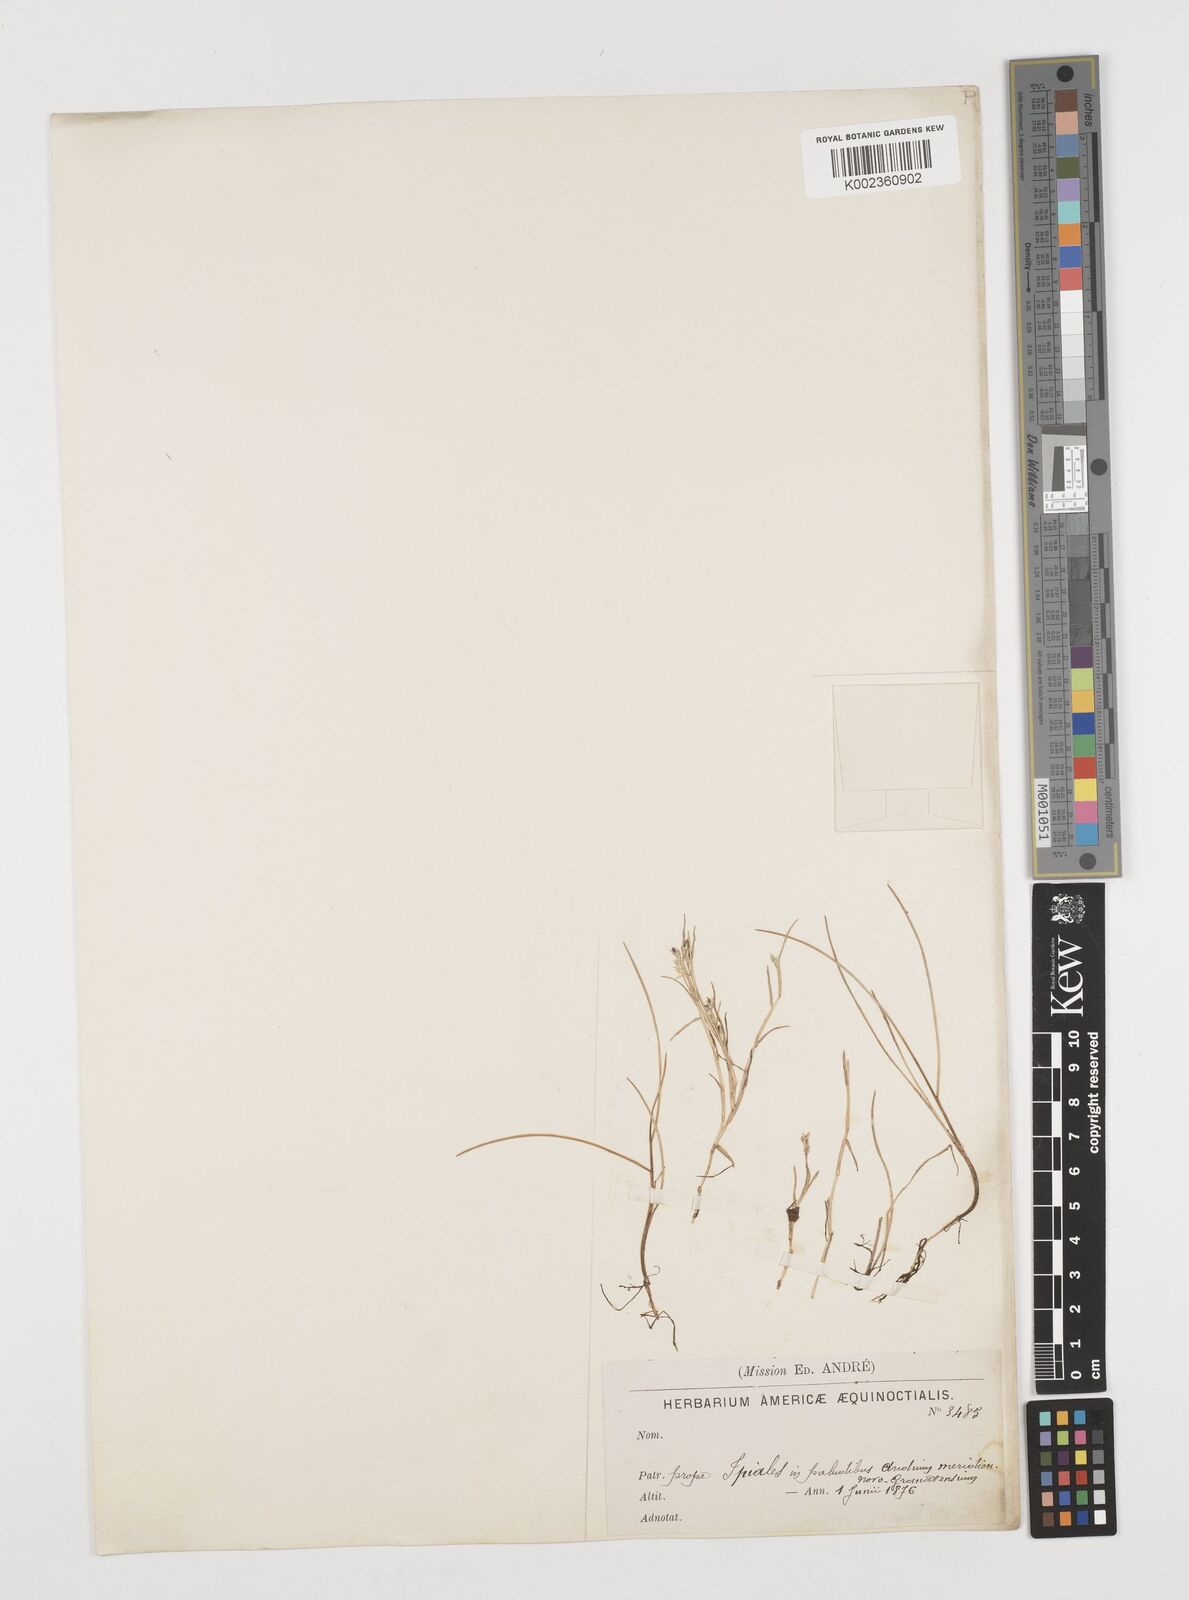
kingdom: Plantae
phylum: Tracheophyta
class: Liliopsida
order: Poales
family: Poaceae
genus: Luziola
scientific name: Luziola fragilis
